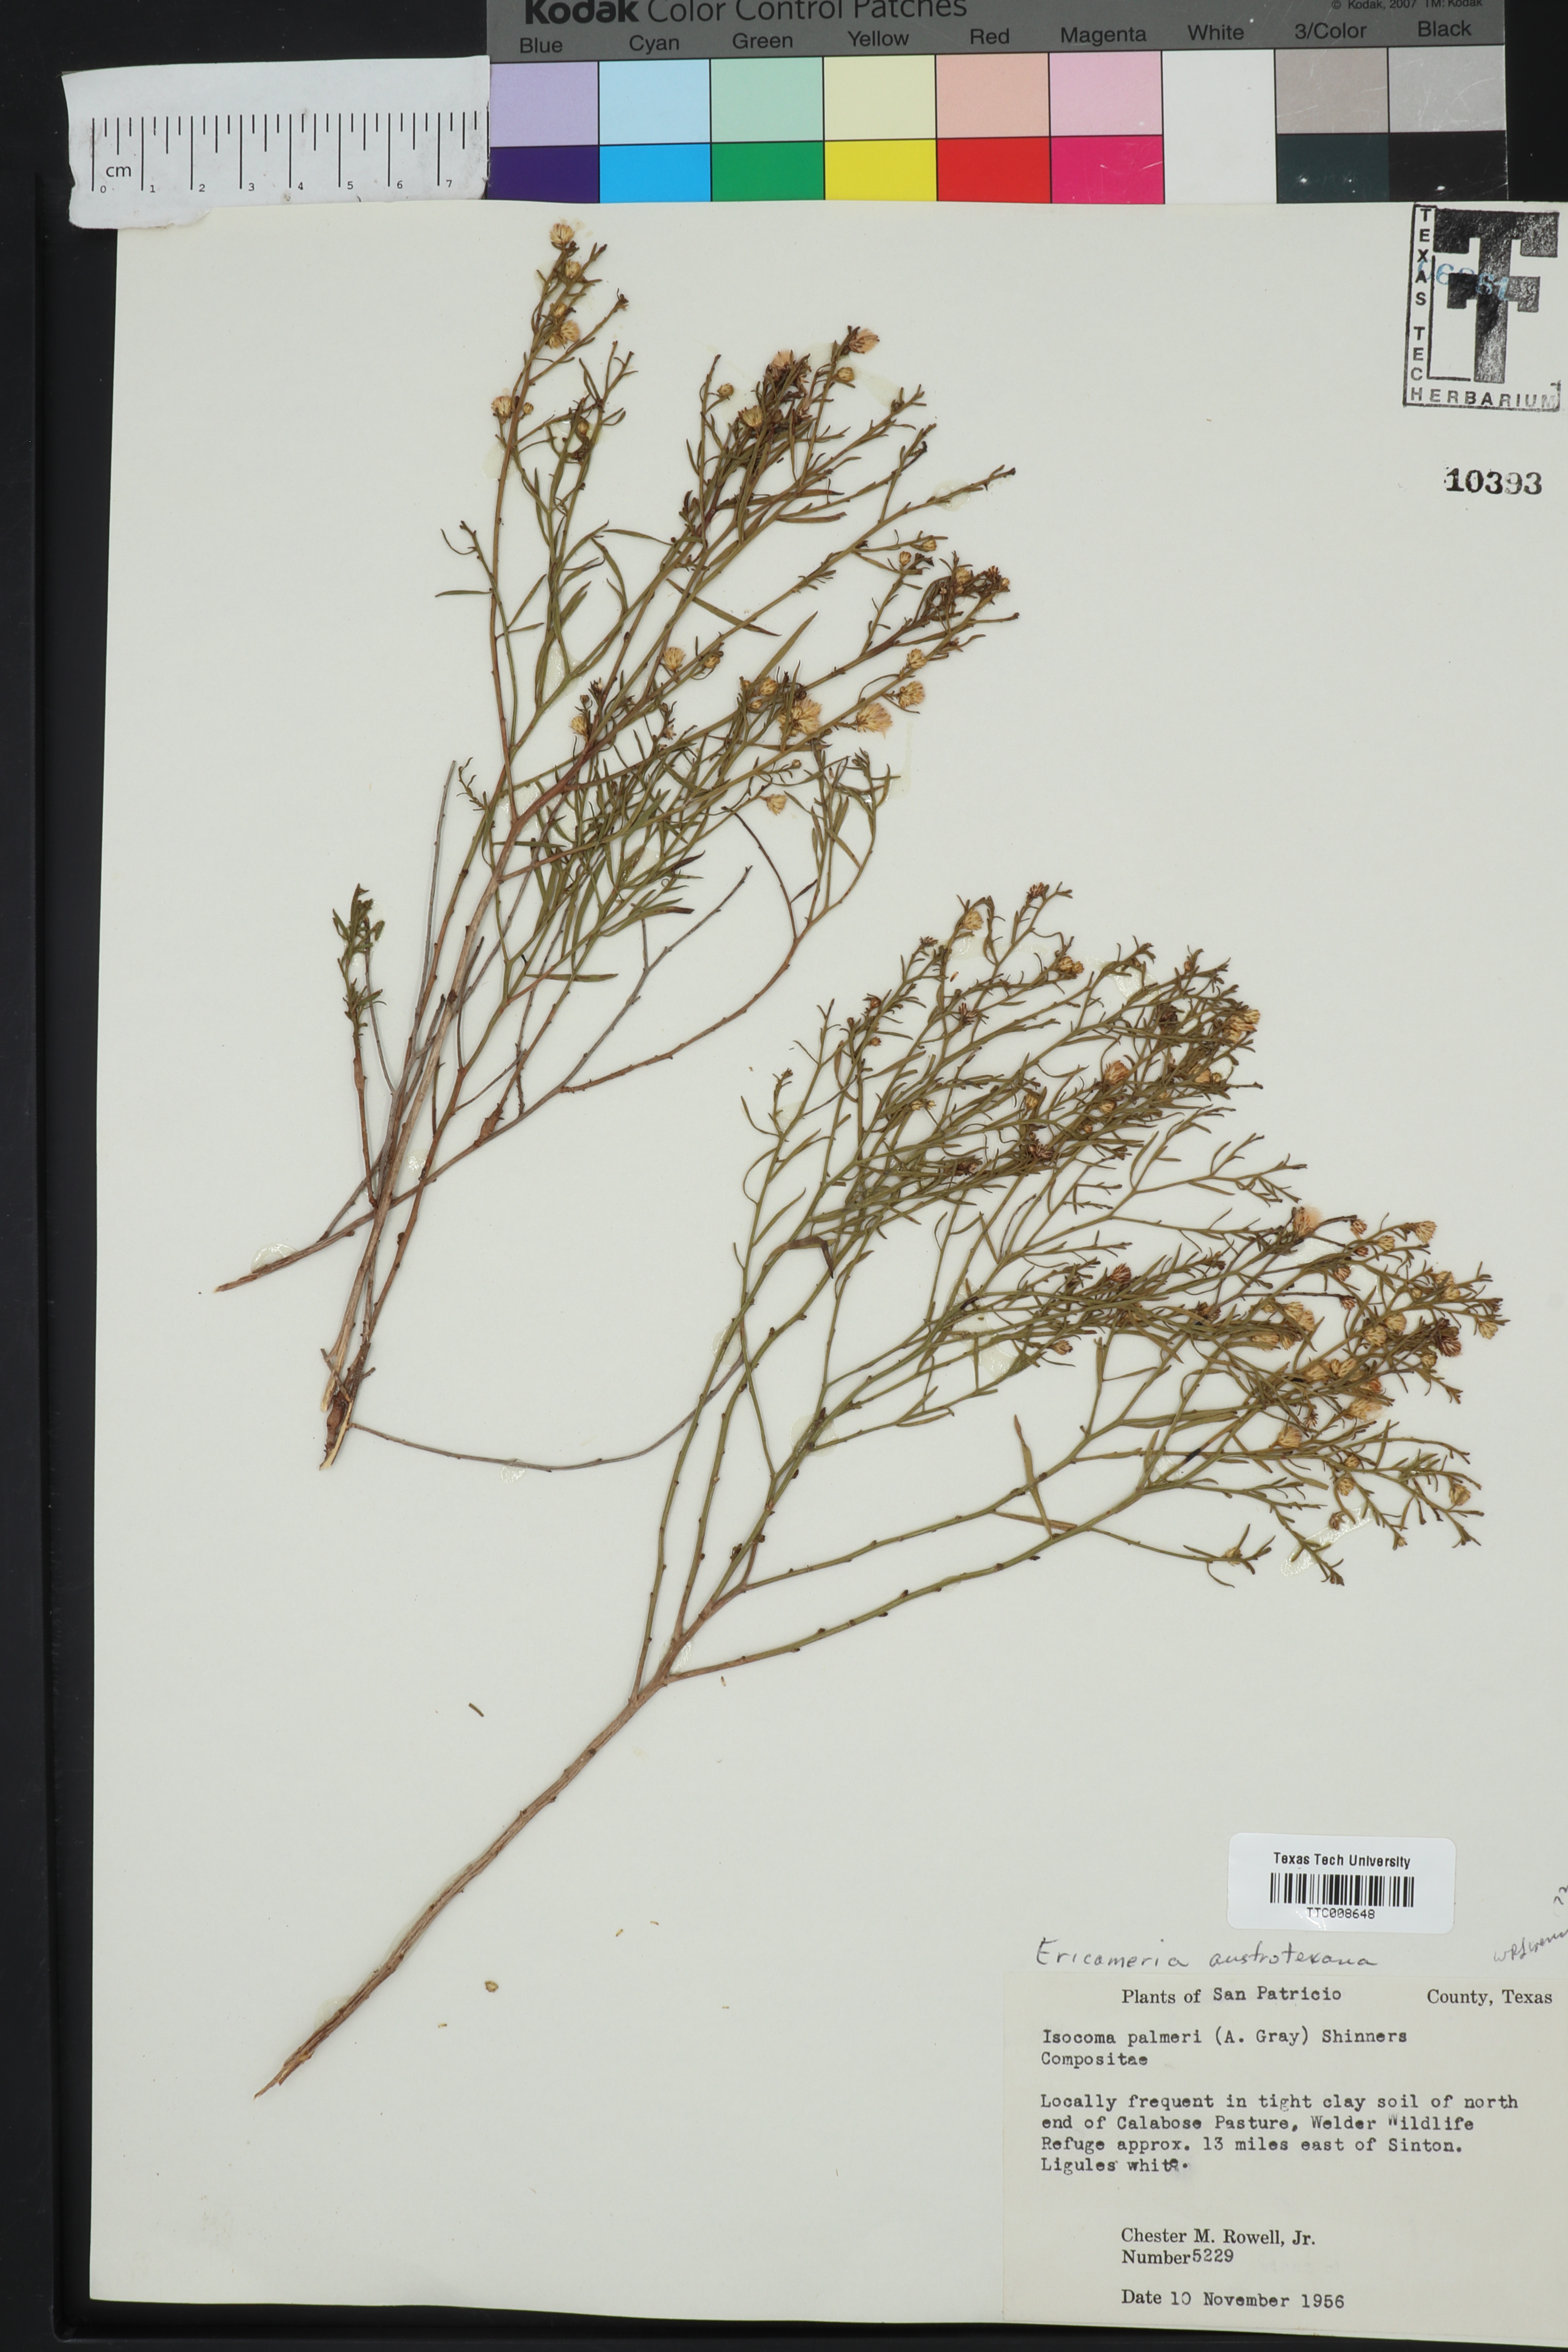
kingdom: Plantae
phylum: Tracheophyta
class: Magnoliopsida
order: Asterales
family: Asteraceae
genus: Medranoa
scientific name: Medranoa palmeri
